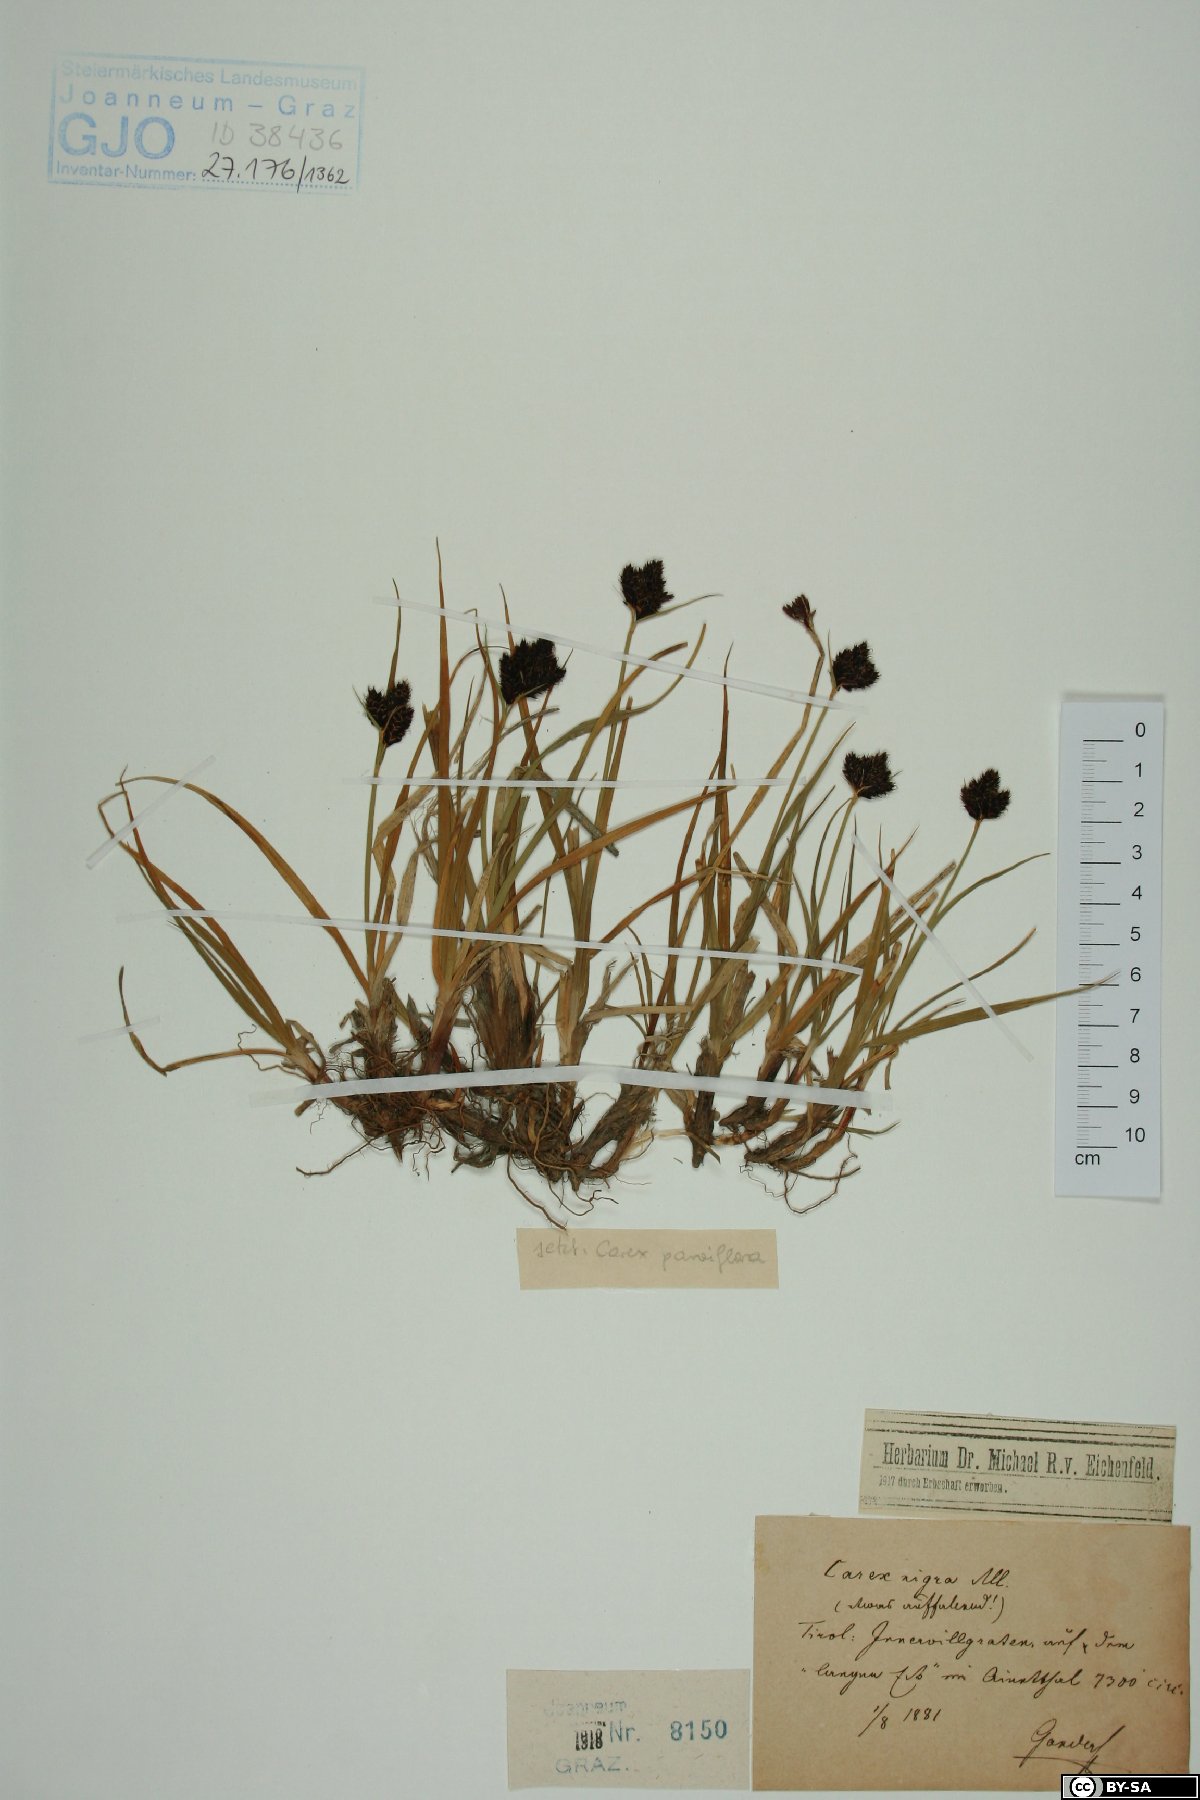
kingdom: Plantae
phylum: Tracheophyta
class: Liliopsida
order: Poales
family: Cyperaceae
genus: Carex
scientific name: Carex nigra
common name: Common sedge
